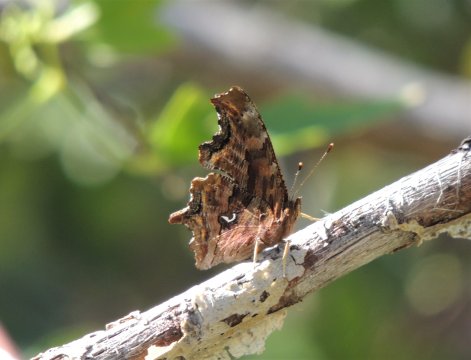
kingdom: Animalia
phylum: Arthropoda
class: Insecta
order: Lepidoptera
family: Nymphalidae
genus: Polygonia
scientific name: Polygonia satyrus
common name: Satyr Comma
